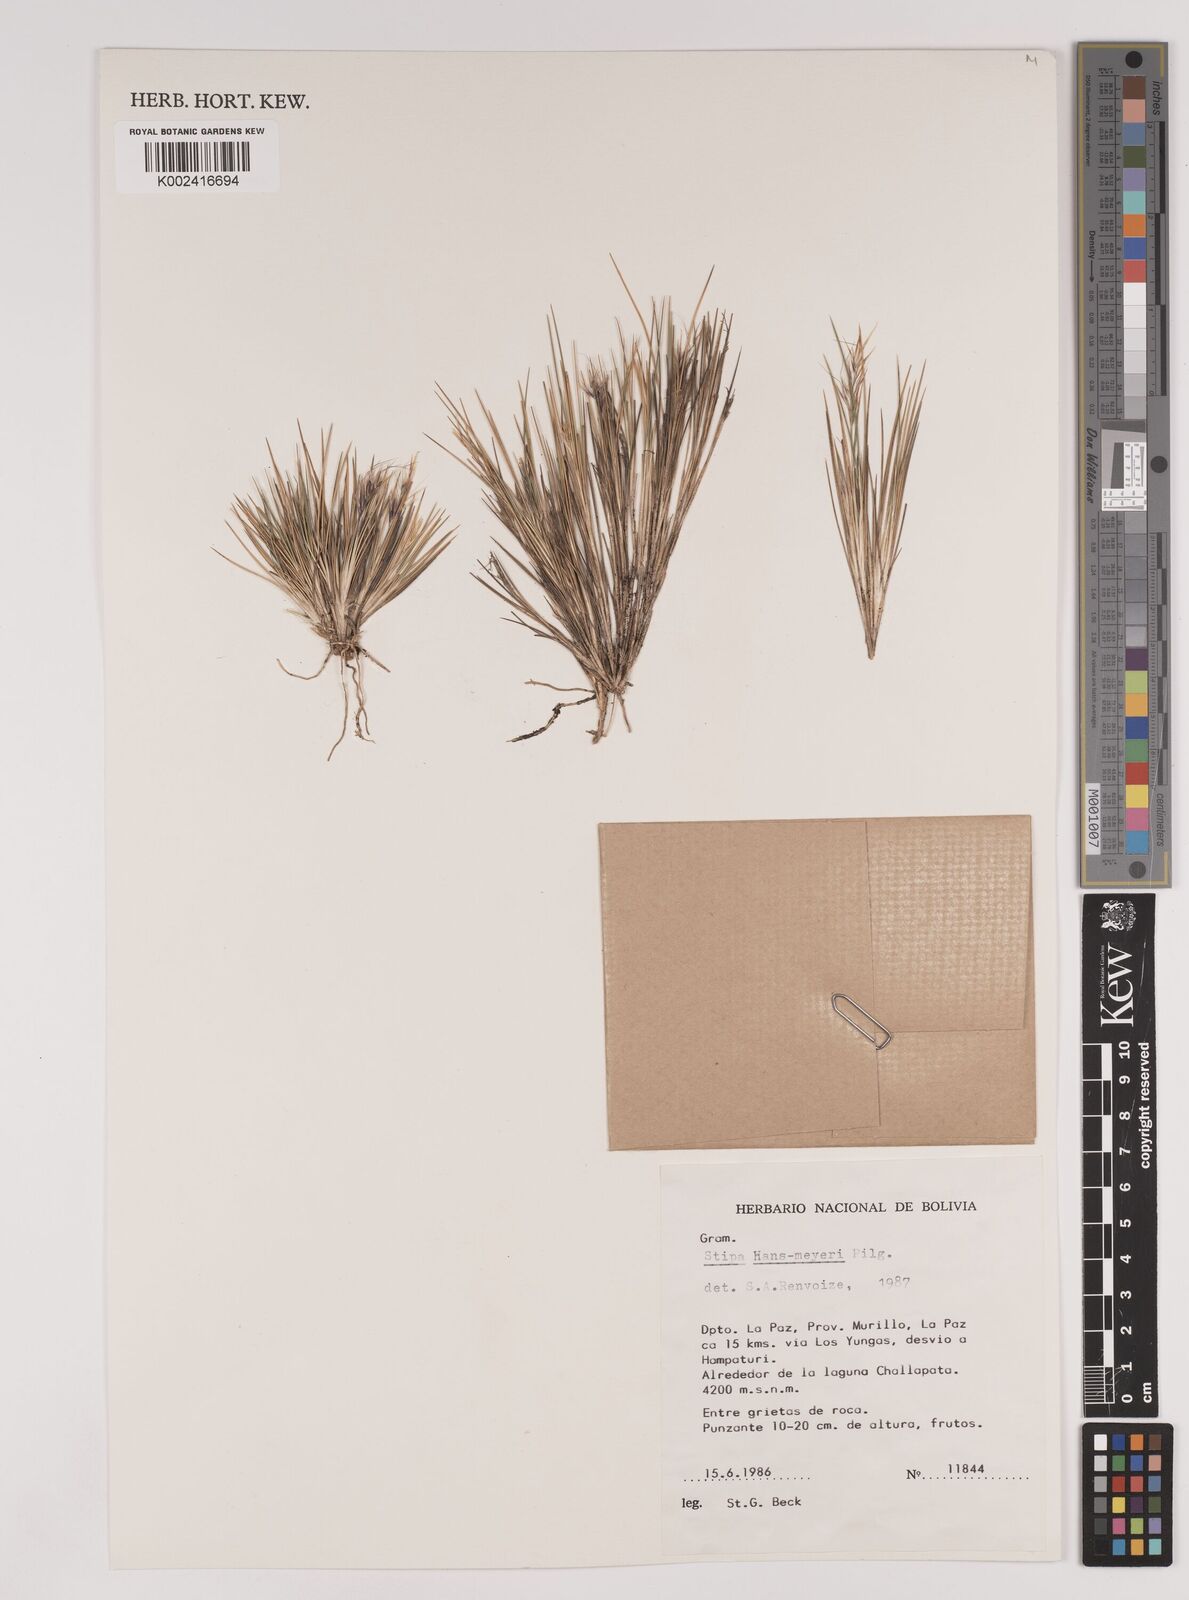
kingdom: Plantae
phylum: Tracheophyta
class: Liliopsida
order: Poales
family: Poaceae
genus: Stipa
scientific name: Stipa hans-meyeri
